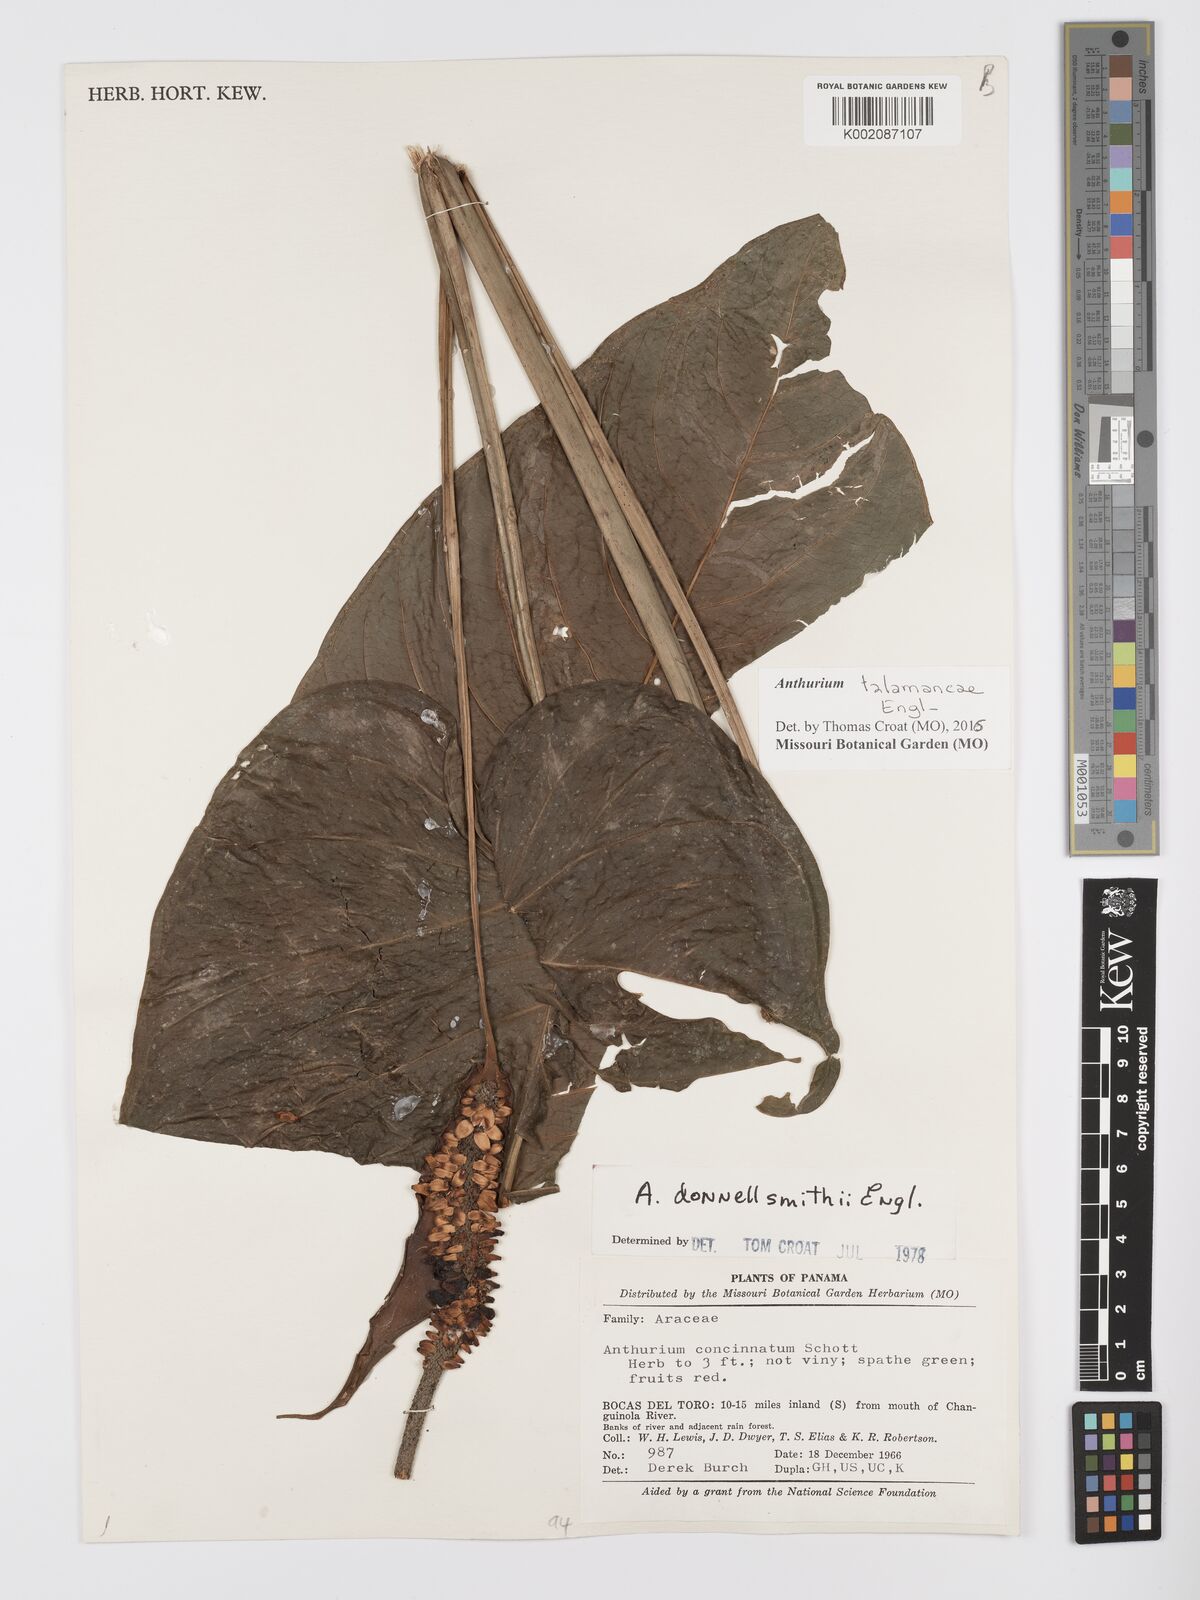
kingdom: Plantae
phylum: Tracheophyta
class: Liliopsida
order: Alismatales
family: Araceae
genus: Anthurium
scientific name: Anthurium talamancae
